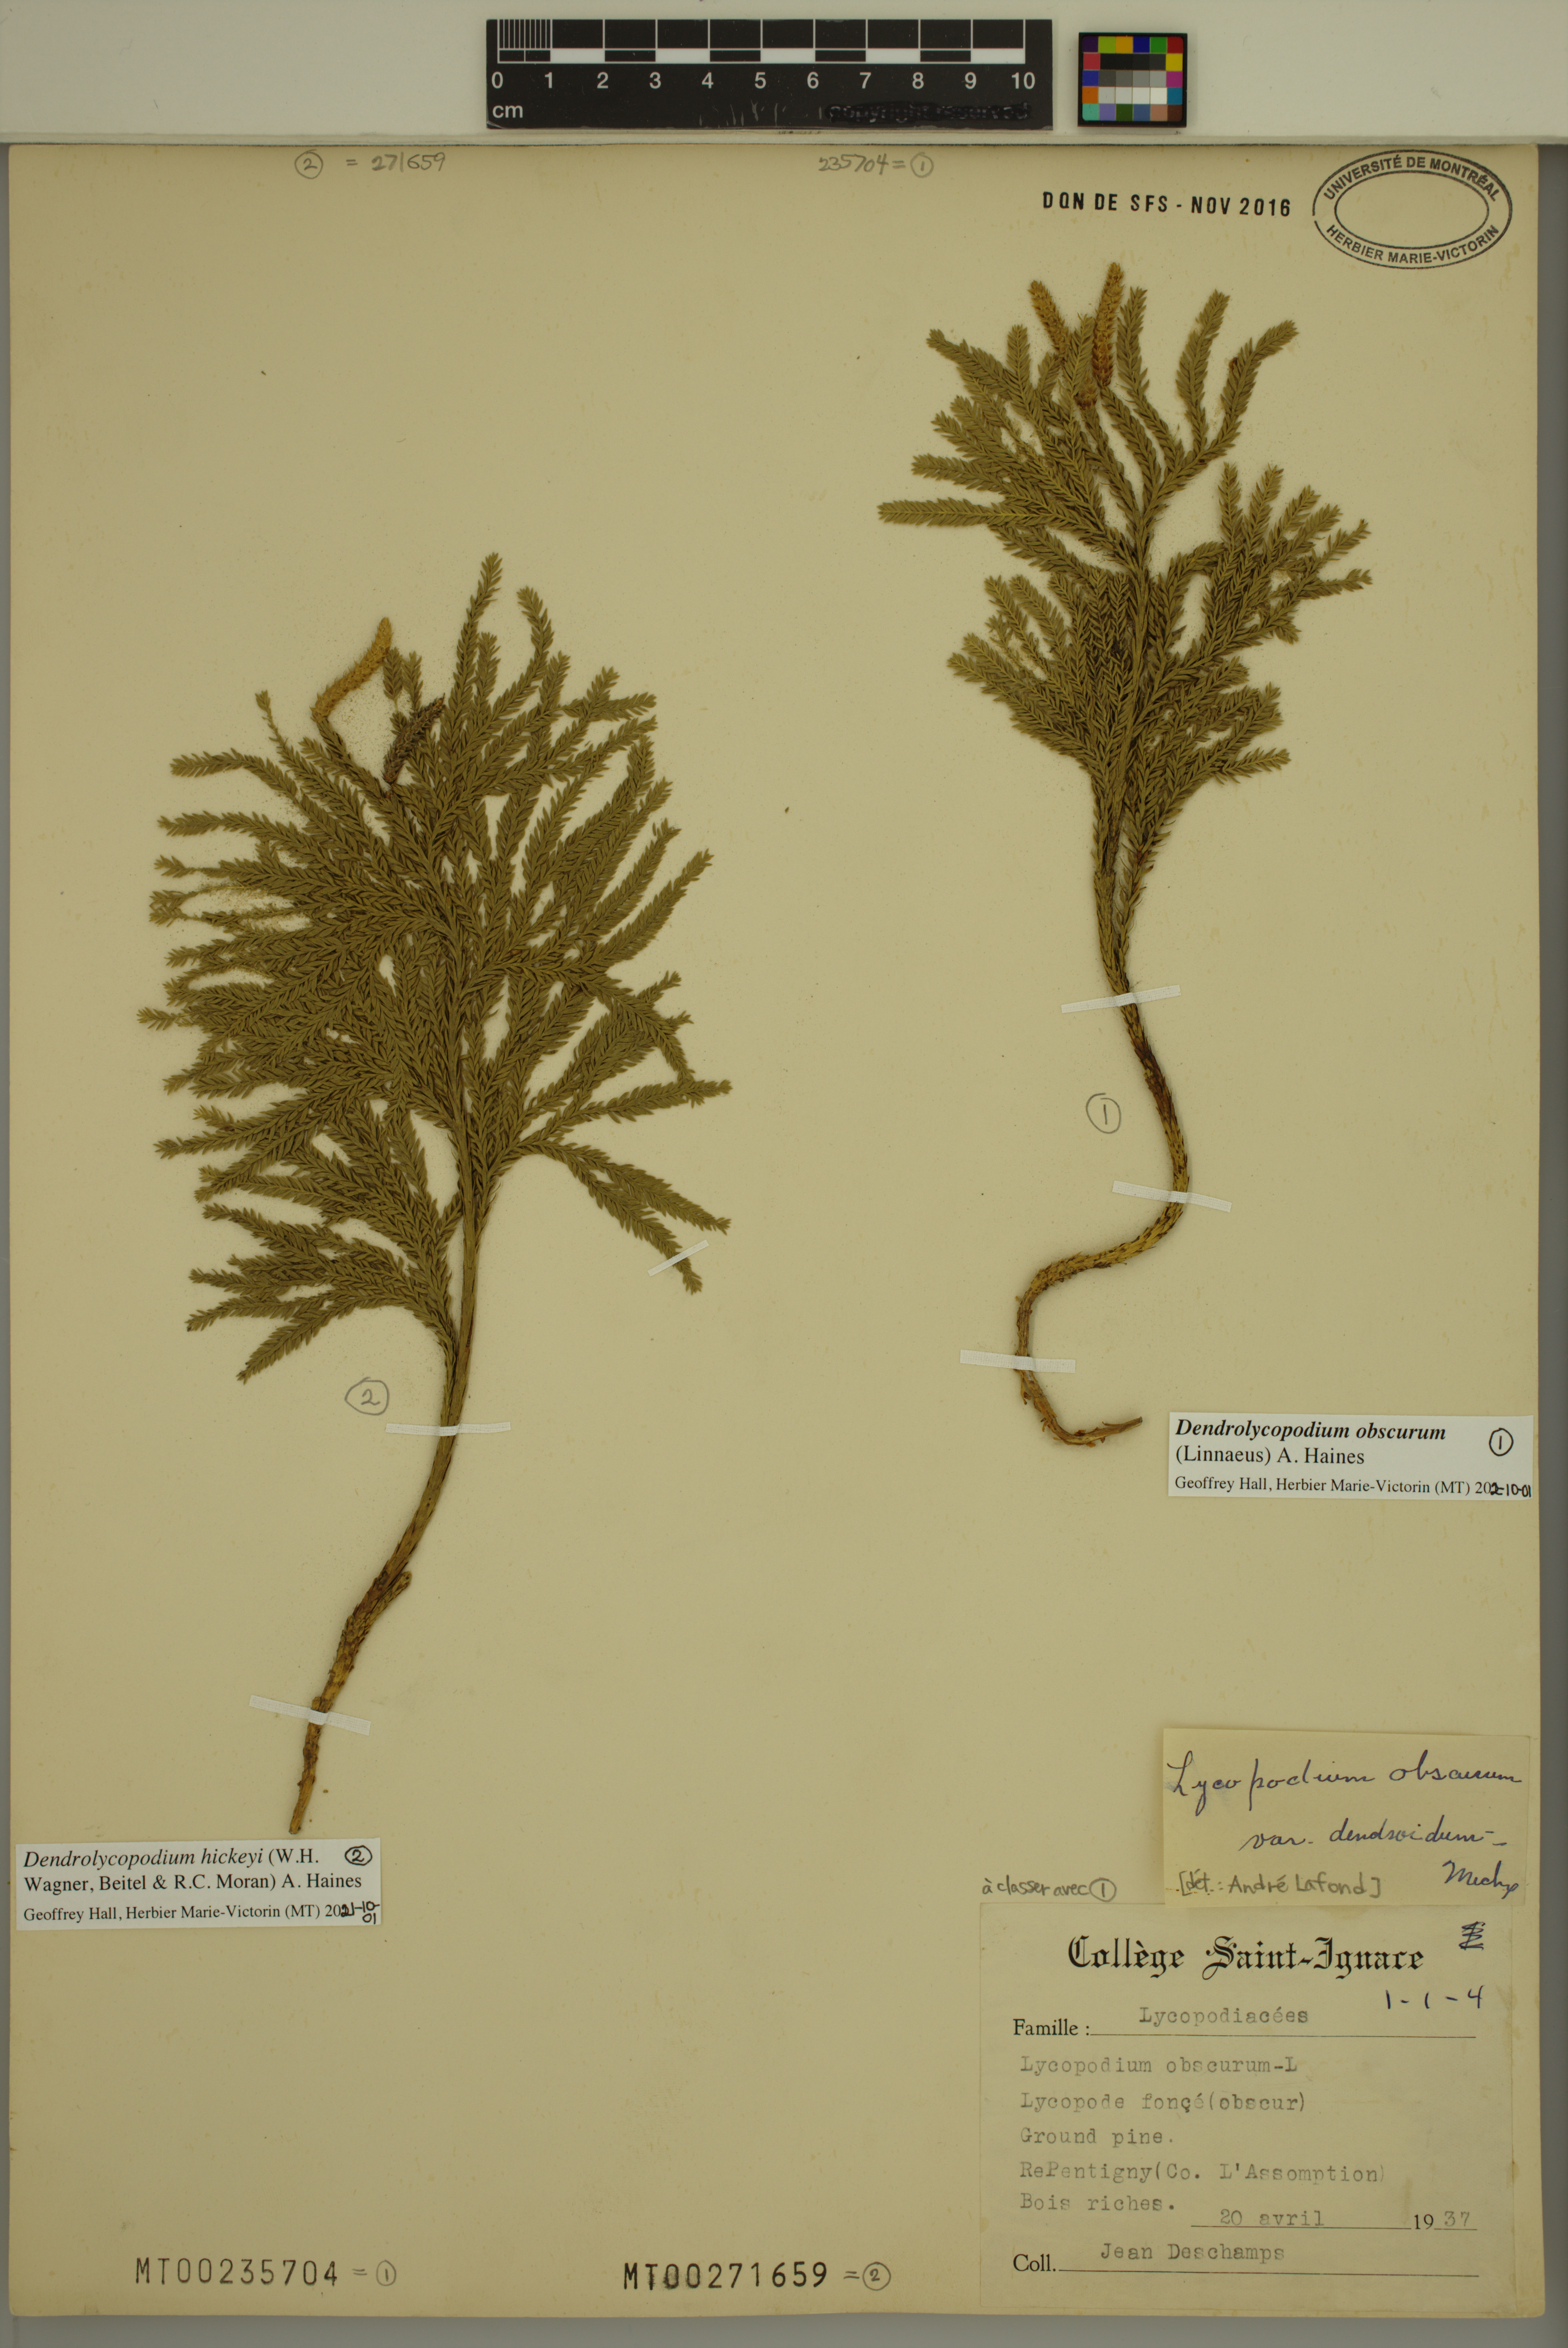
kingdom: Plantae
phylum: Tracheophyta
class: Lycopodiopsida
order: Lycopodiales
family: Lycopodiaceae
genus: Dendrolycopodium
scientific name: Dendrolycopodium hickeyi
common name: Hickey's clubmoss
